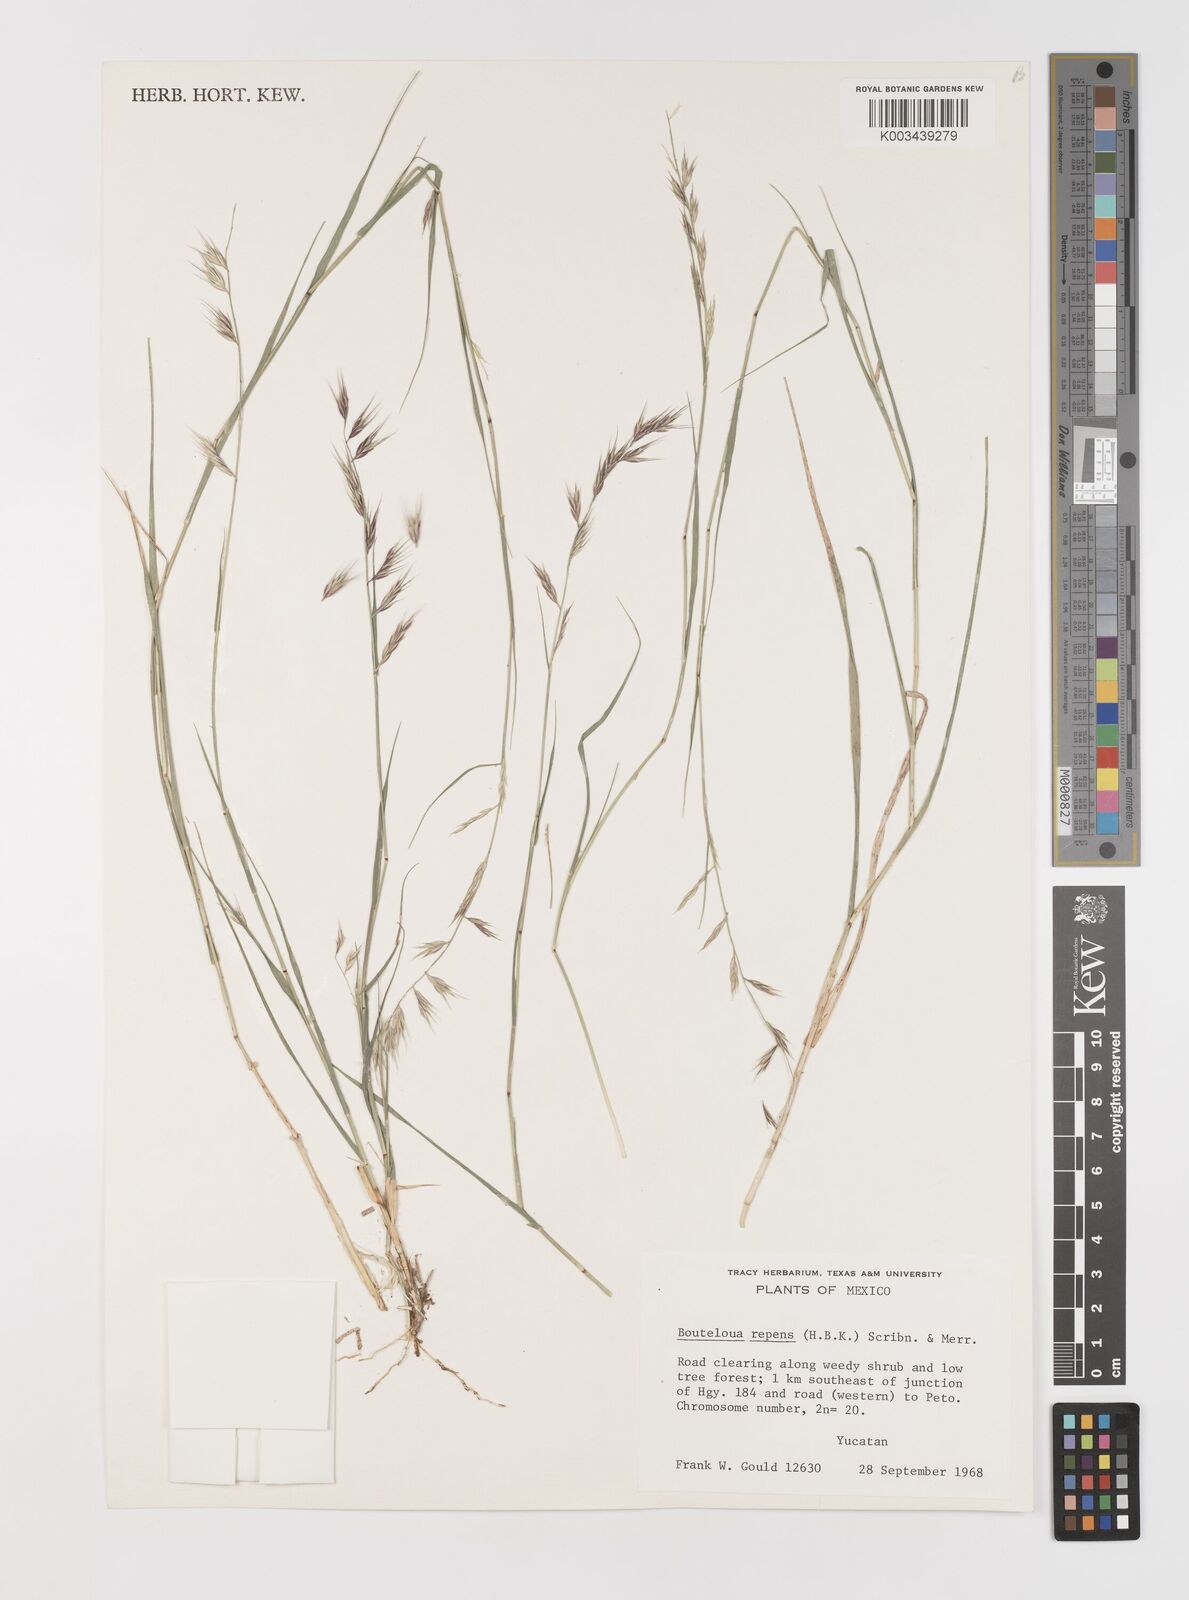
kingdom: Plantae
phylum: Tracheophyta
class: Liliopsida
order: Poales
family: Poaceae
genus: Bouteloua
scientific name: Bouteloua repens
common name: Slender grama
